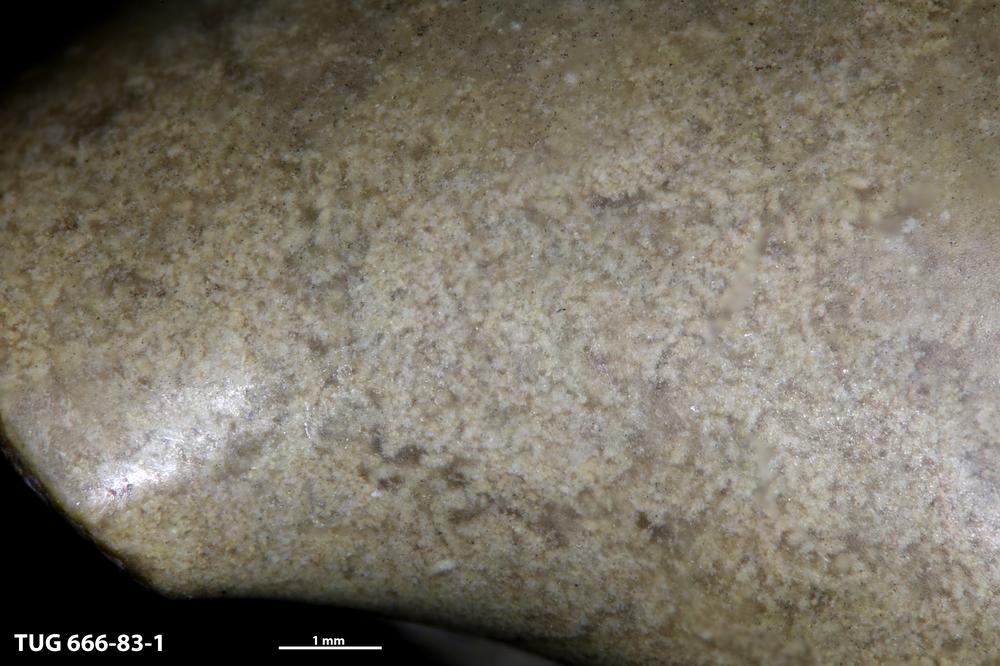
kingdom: Animalia
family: Coprulidae
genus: Coprulus
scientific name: Coprulus
